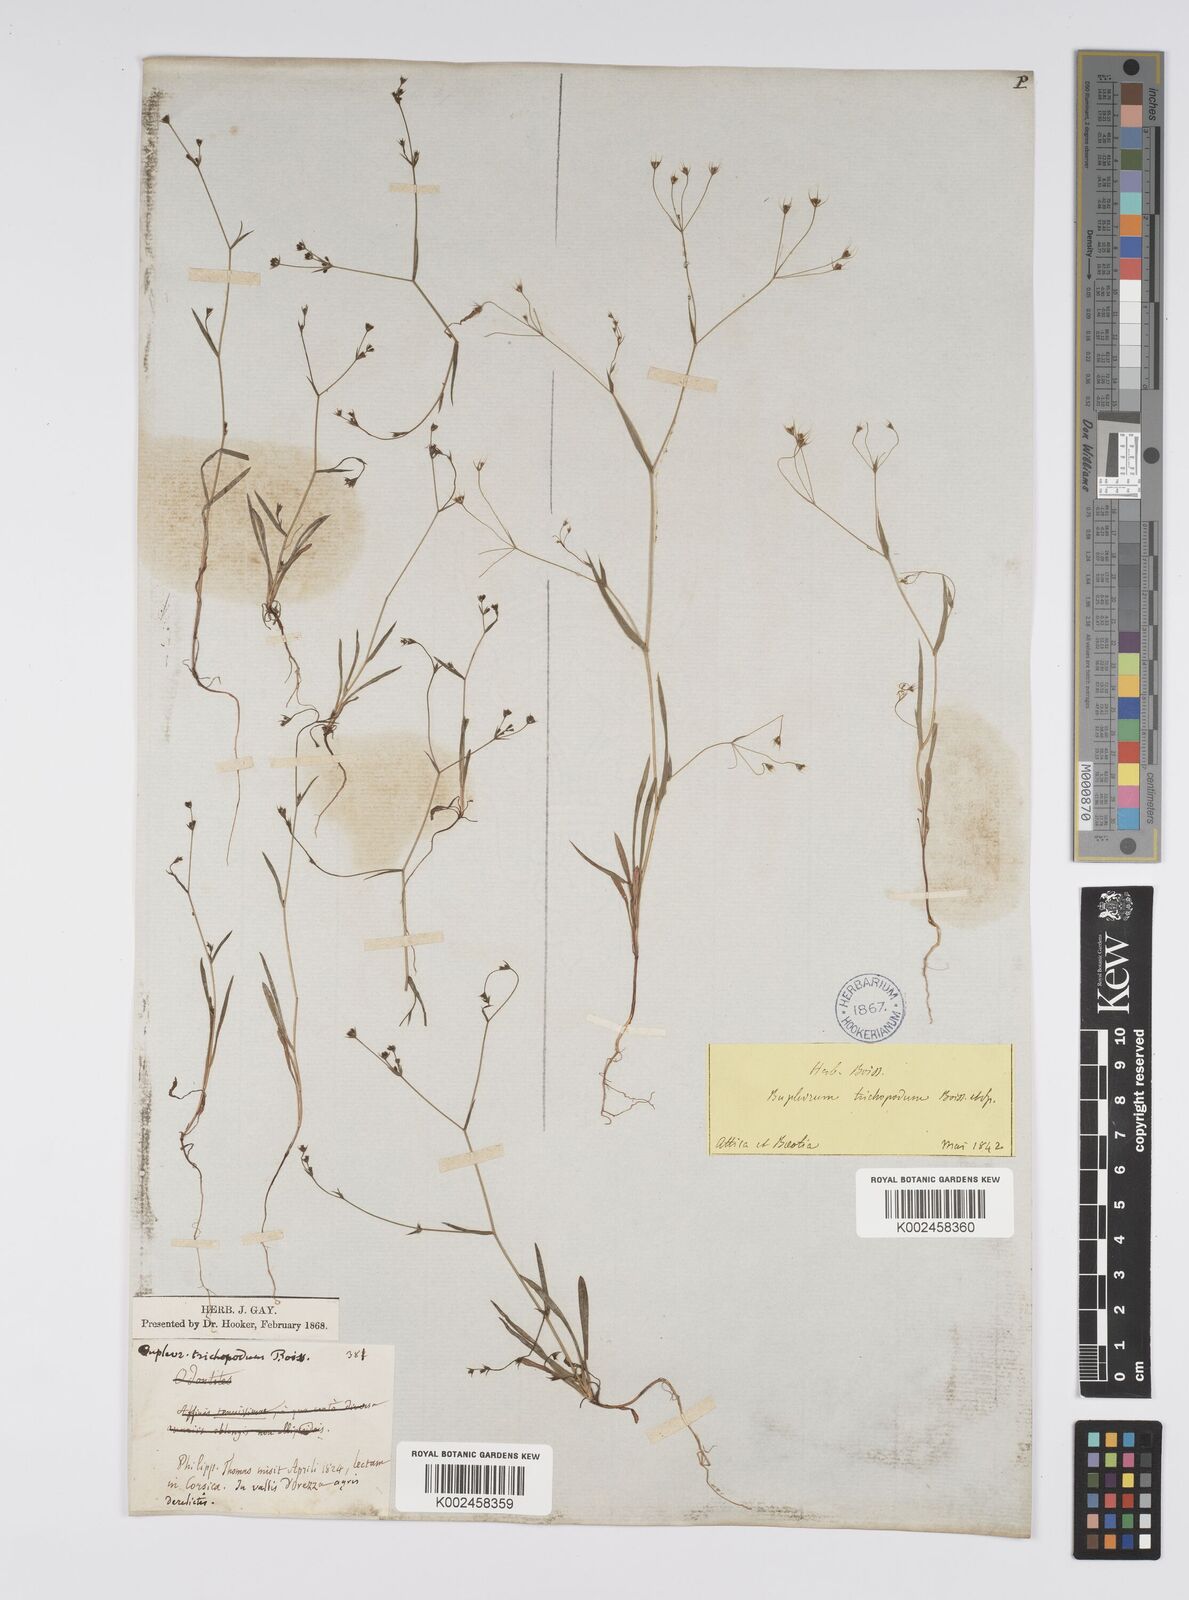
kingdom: Plantae
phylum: Tracheophyta
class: Magnoliopsida
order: Apiales
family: Apiaceae
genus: Bupleurum
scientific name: Bupleurum trichopodum
